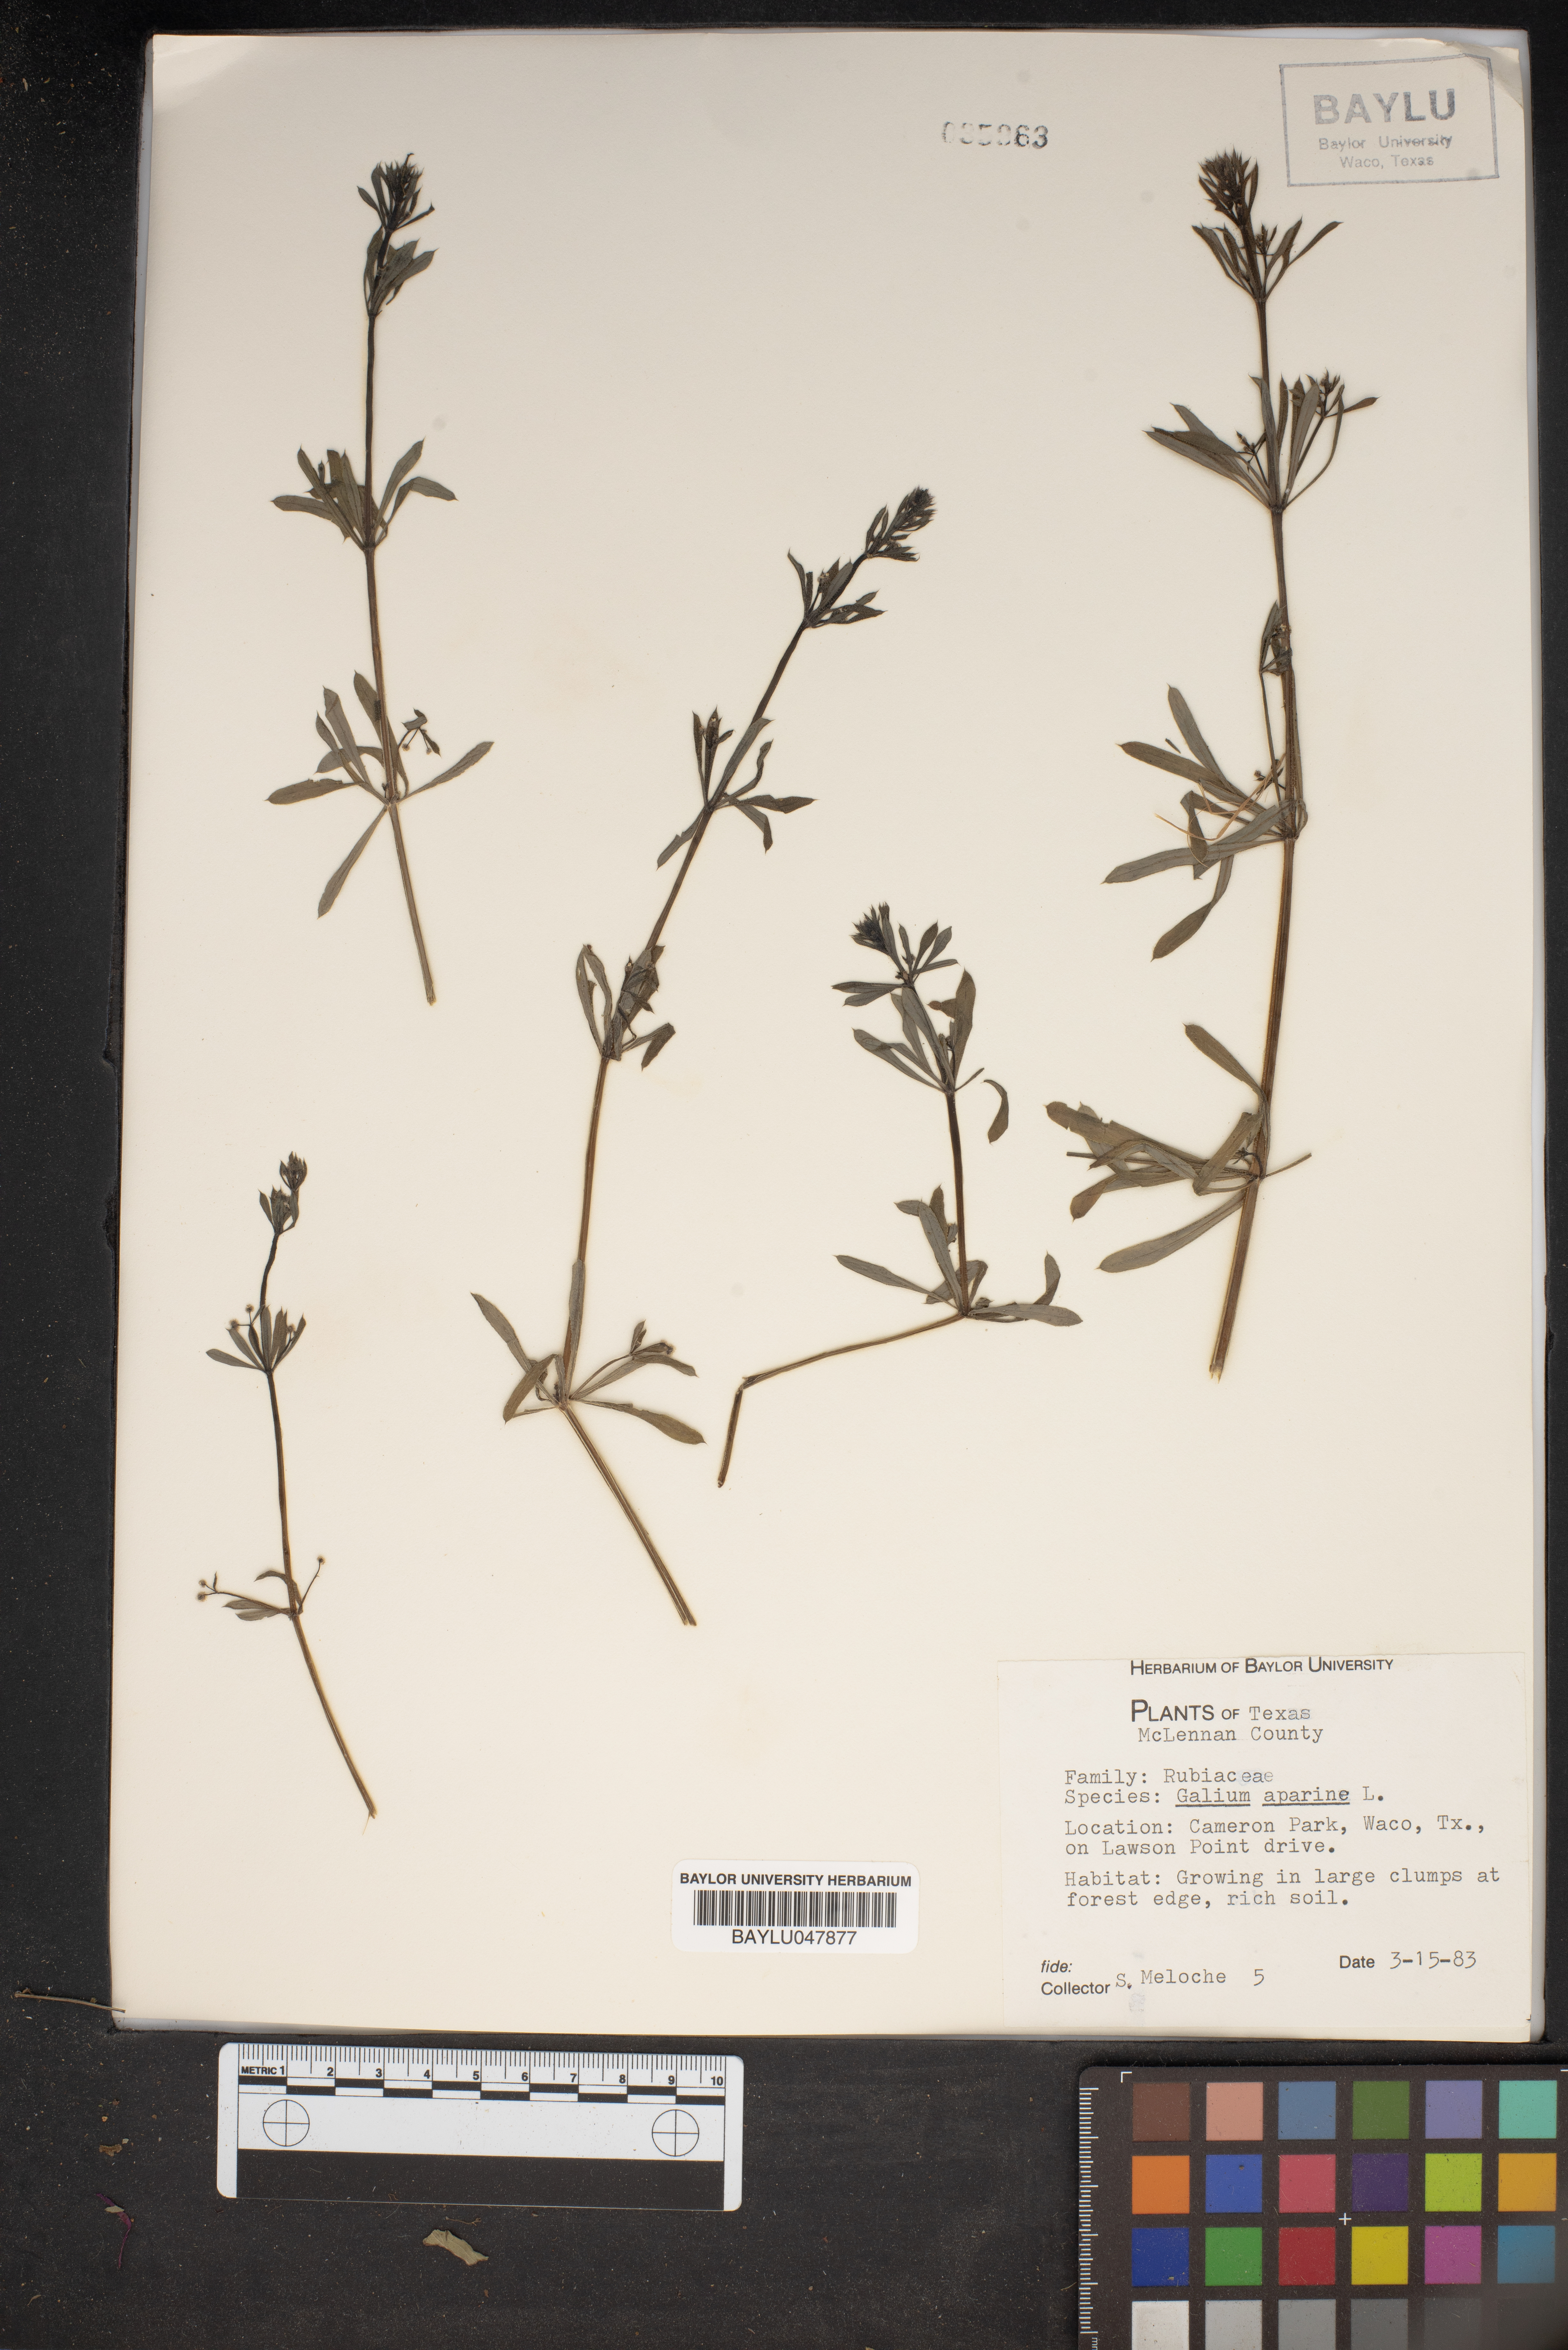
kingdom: Plantae
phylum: Tracheophyta
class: Magnoliopsida
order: Gentianales
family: Rubiaceae
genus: Galium
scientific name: Galium aparine
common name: Cleavers
